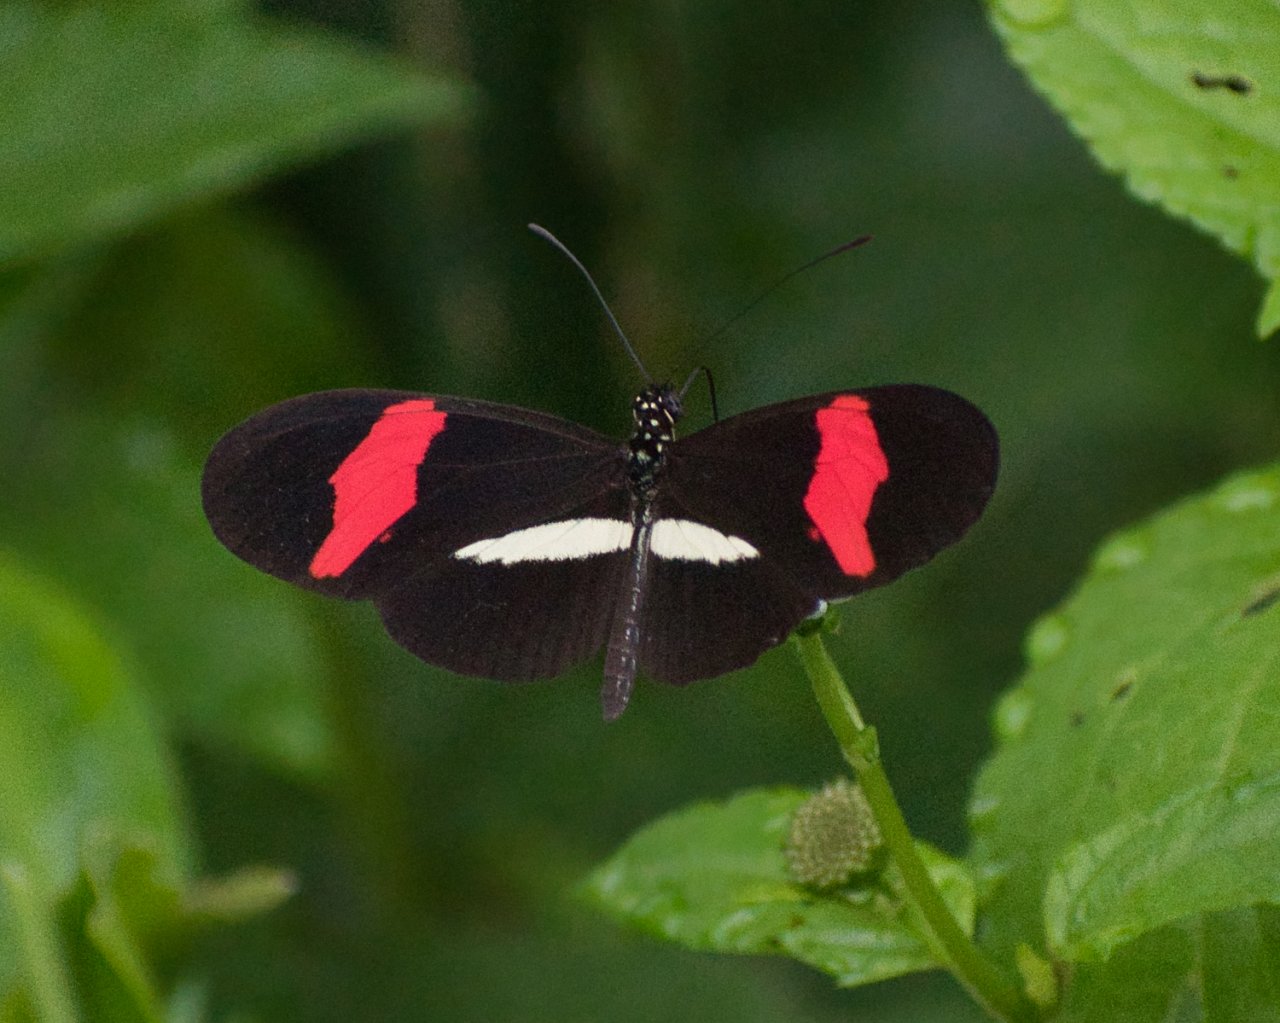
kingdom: Animalia
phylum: Arthropoda
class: Insecta
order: Lepidoptera
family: Nymphalidae
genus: Heliconius
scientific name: Heliconius erato
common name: Erato Heliconian
